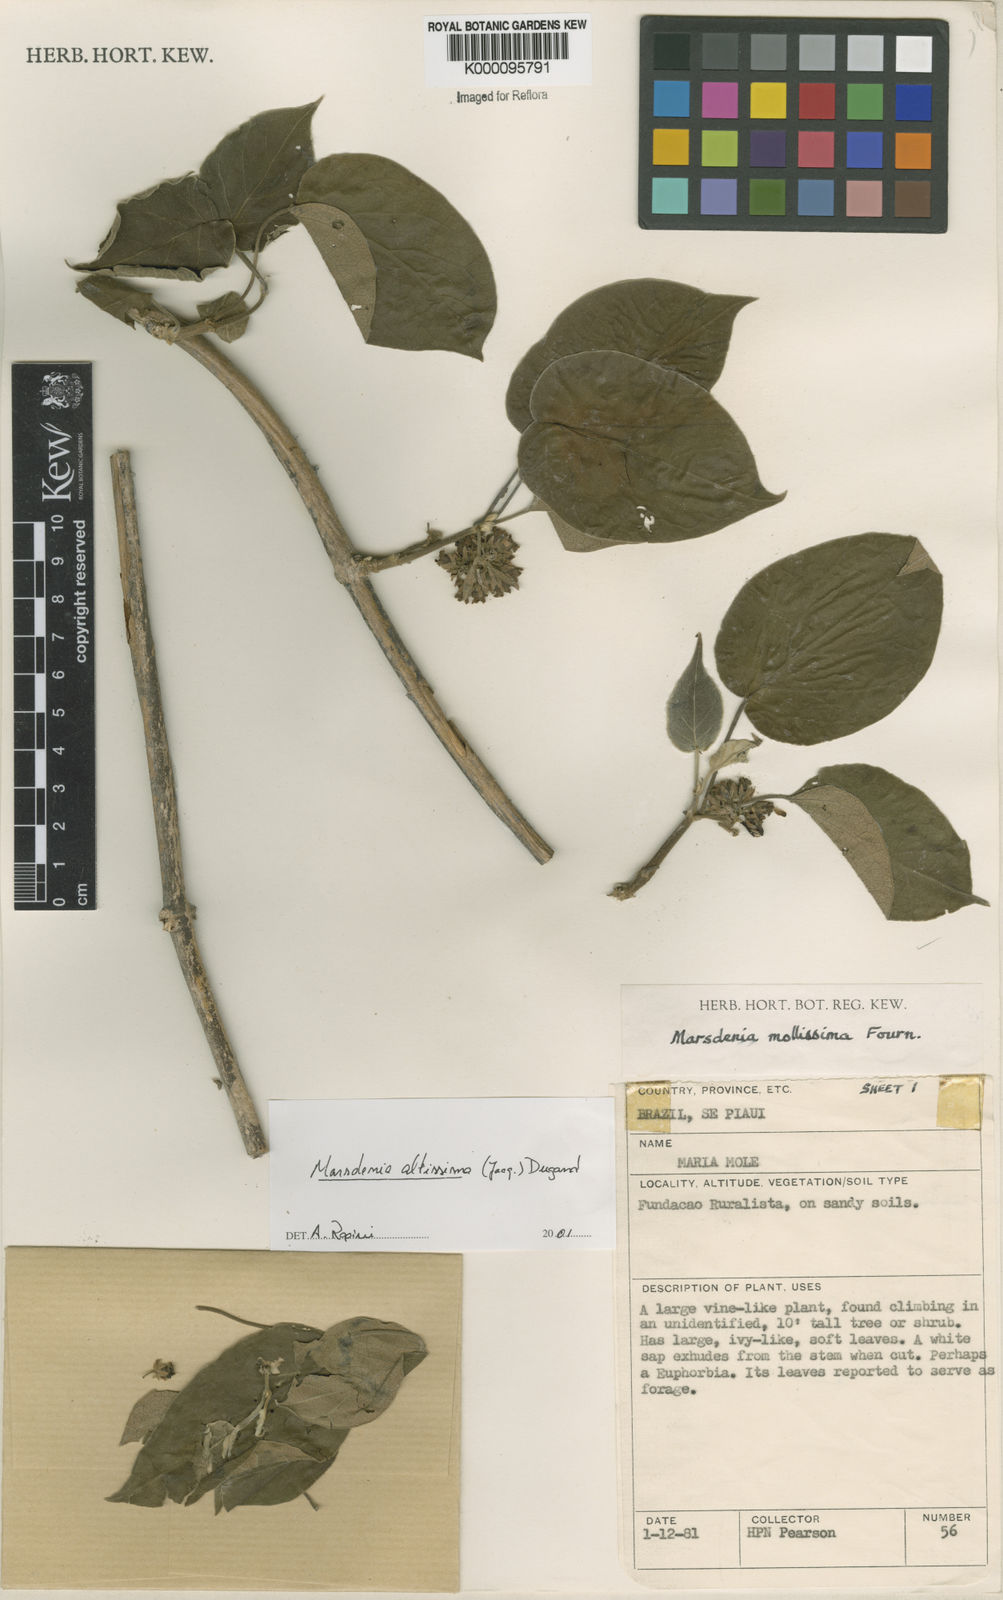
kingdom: Plantae
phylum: Tracheophyta
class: Magnoliopsida
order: Gentianales
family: Apocynaceae
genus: Ruehssia
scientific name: Ruehssia altissima
